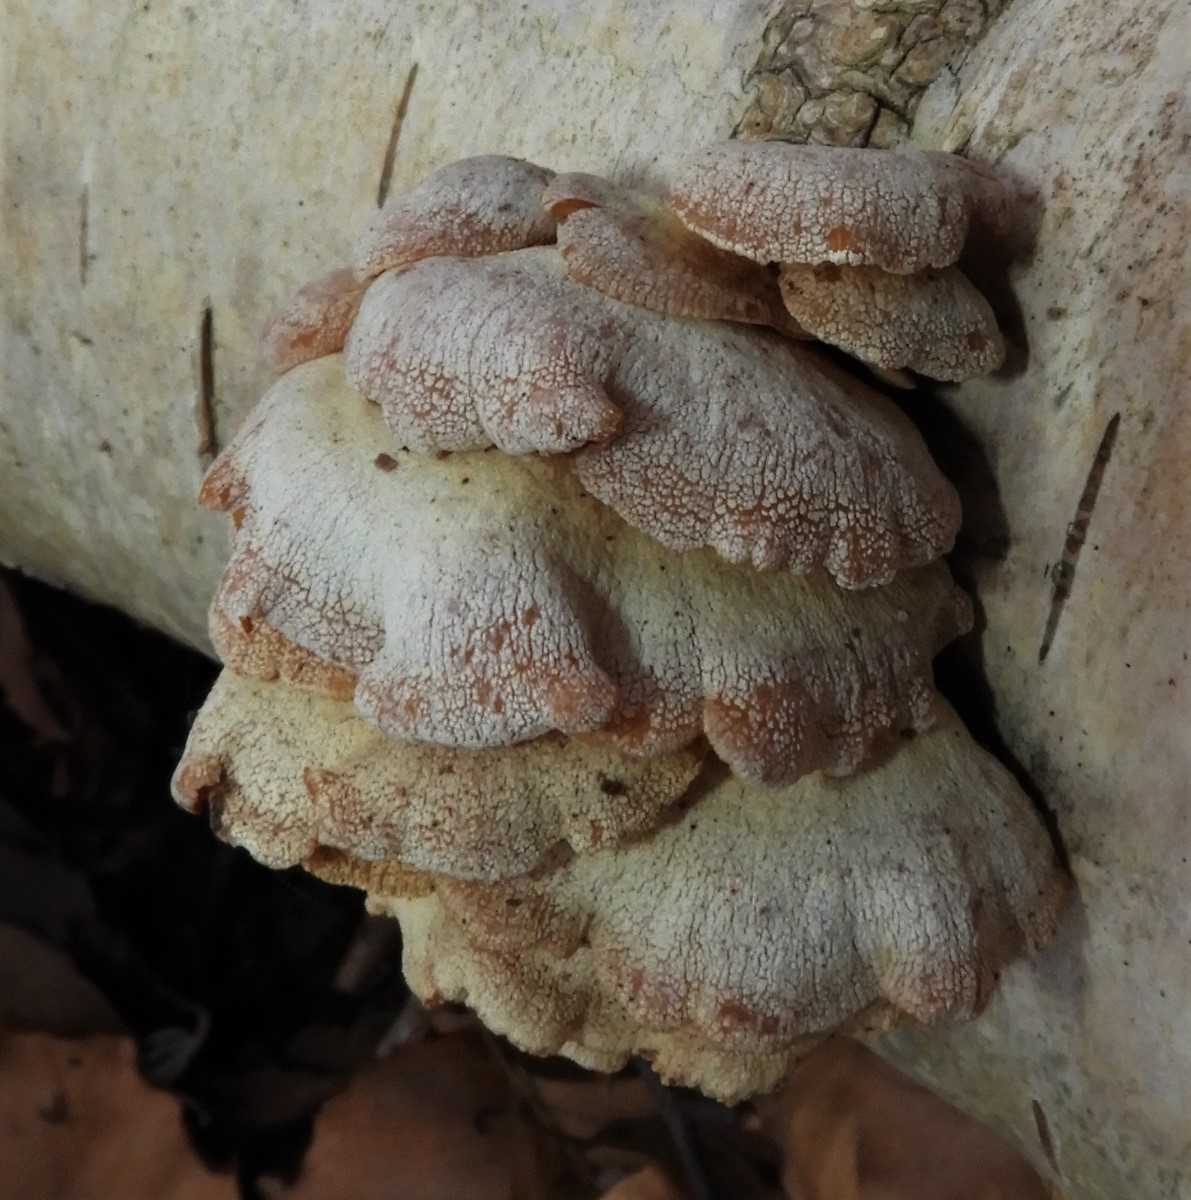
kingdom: Fungi
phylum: Basidiomycota
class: Agaricomycetes
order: Agaricales
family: Mycenaceae
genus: Panellus
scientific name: Panellus stipticus
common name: kliddet epaulethat
